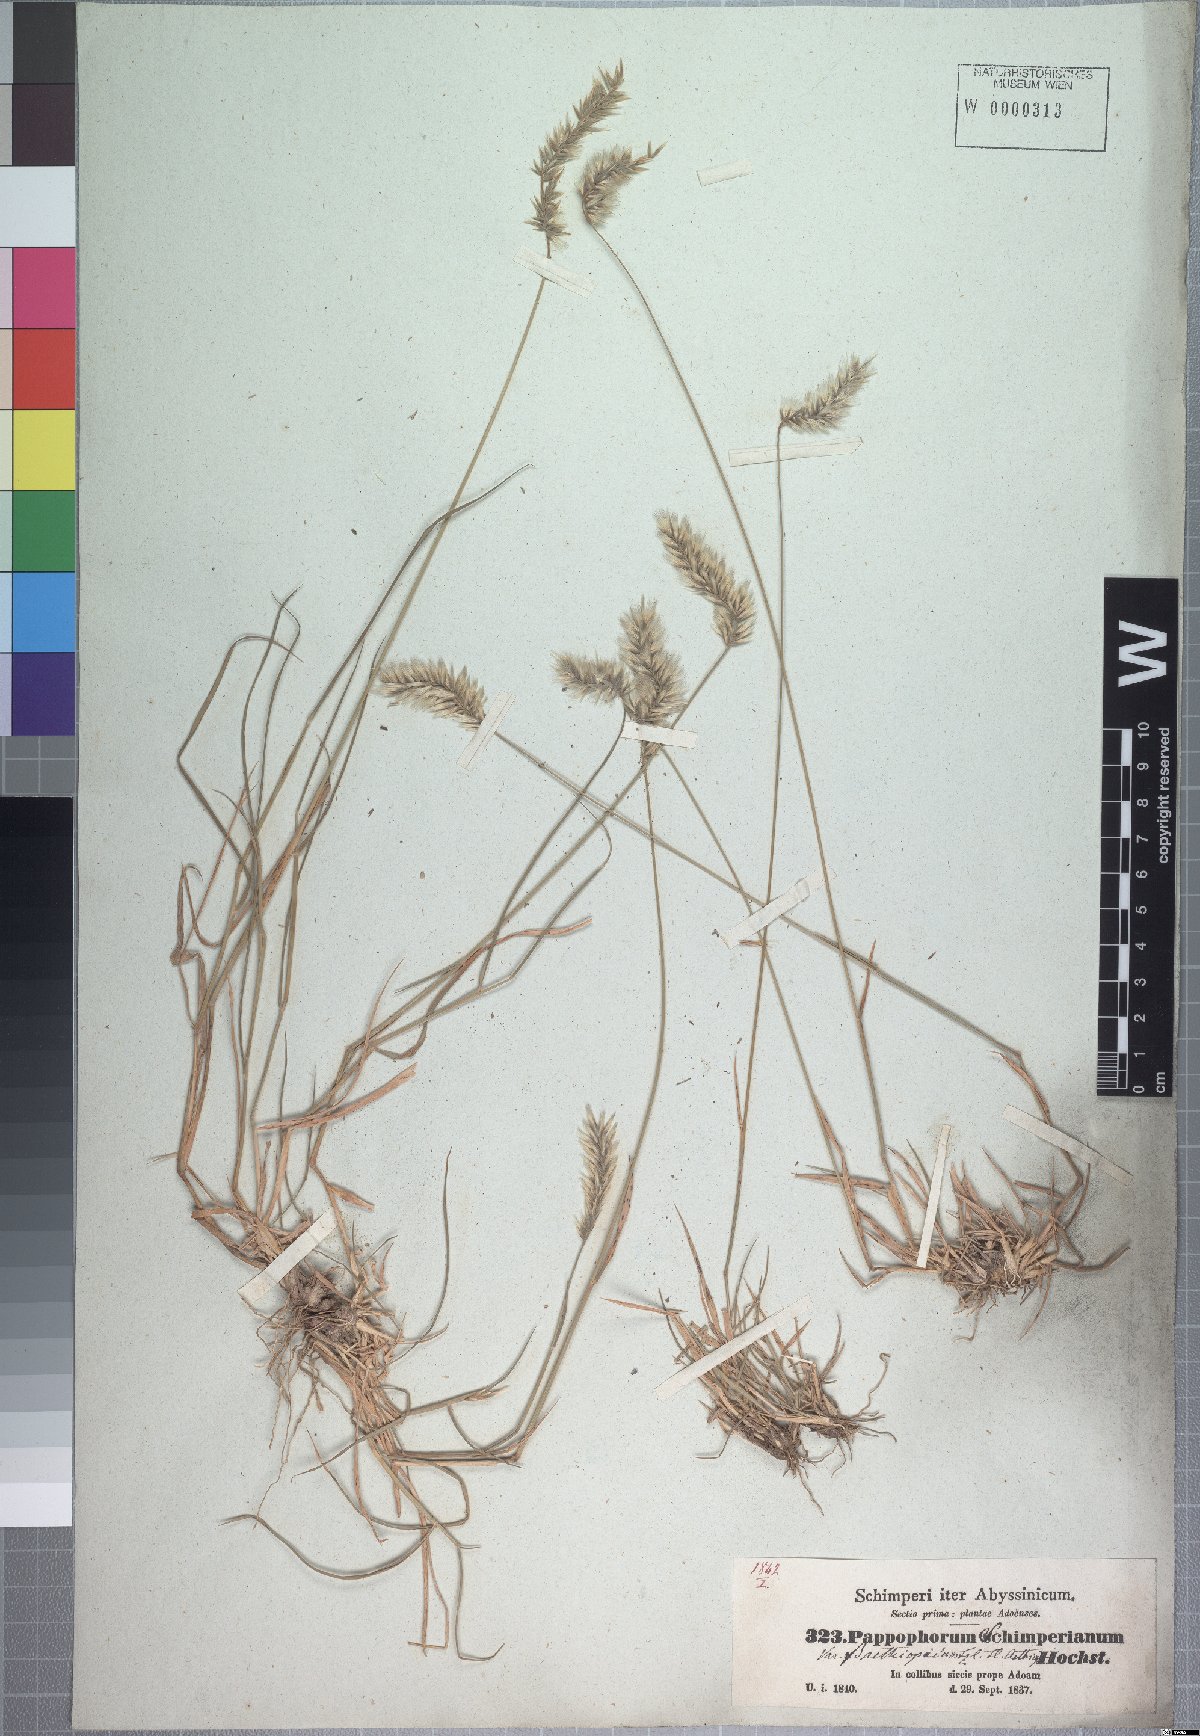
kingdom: Plantae
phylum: Tracheophyta
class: Liliopsida
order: Poales
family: Poaceae
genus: Enneapogon
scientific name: Enneapogon persicus
